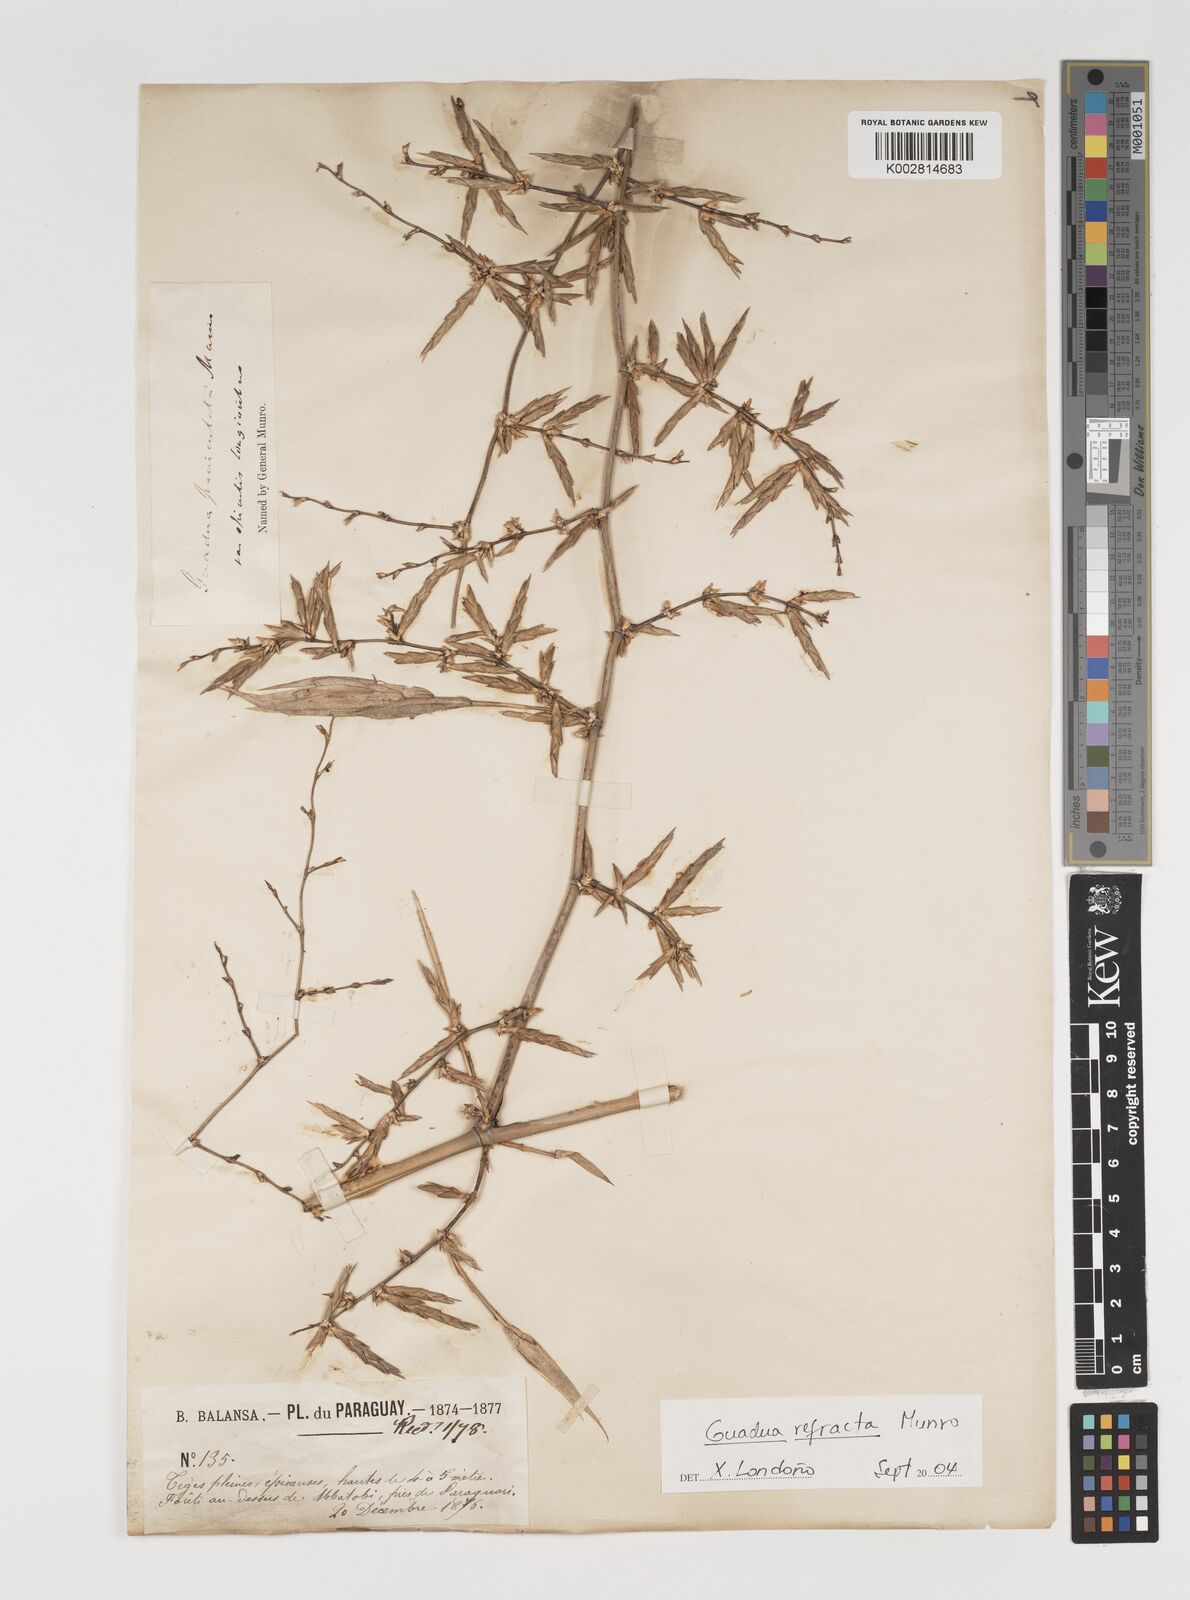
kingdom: Plantae
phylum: Tracheophyta
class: Liliopsida
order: Poales
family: Poaceae
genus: Guadua
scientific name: Guadua refracta
